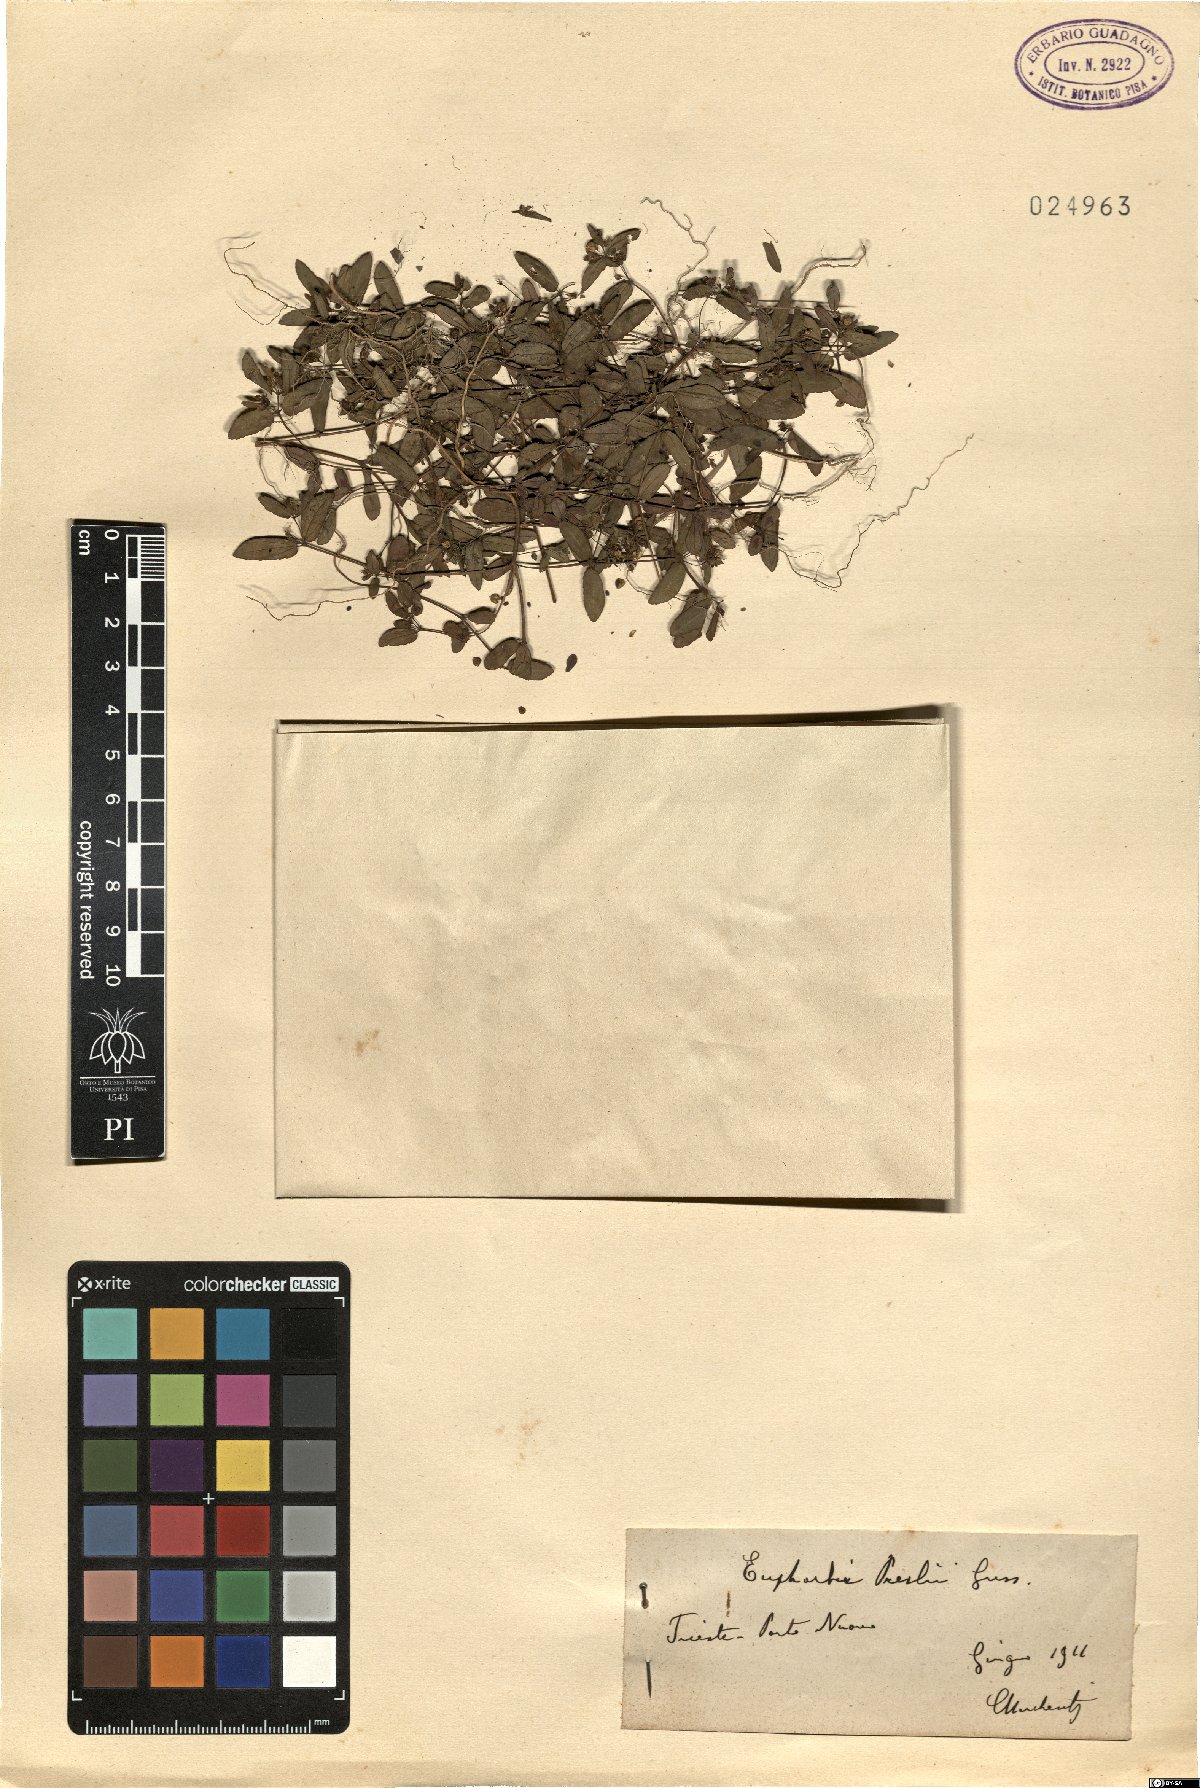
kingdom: Plantae
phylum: Tracheophyta
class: Magnoliopsida
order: Malpighiales
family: Euphorbiaceae
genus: Euphorbia
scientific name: Euphorbia nutans
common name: Eyebane
